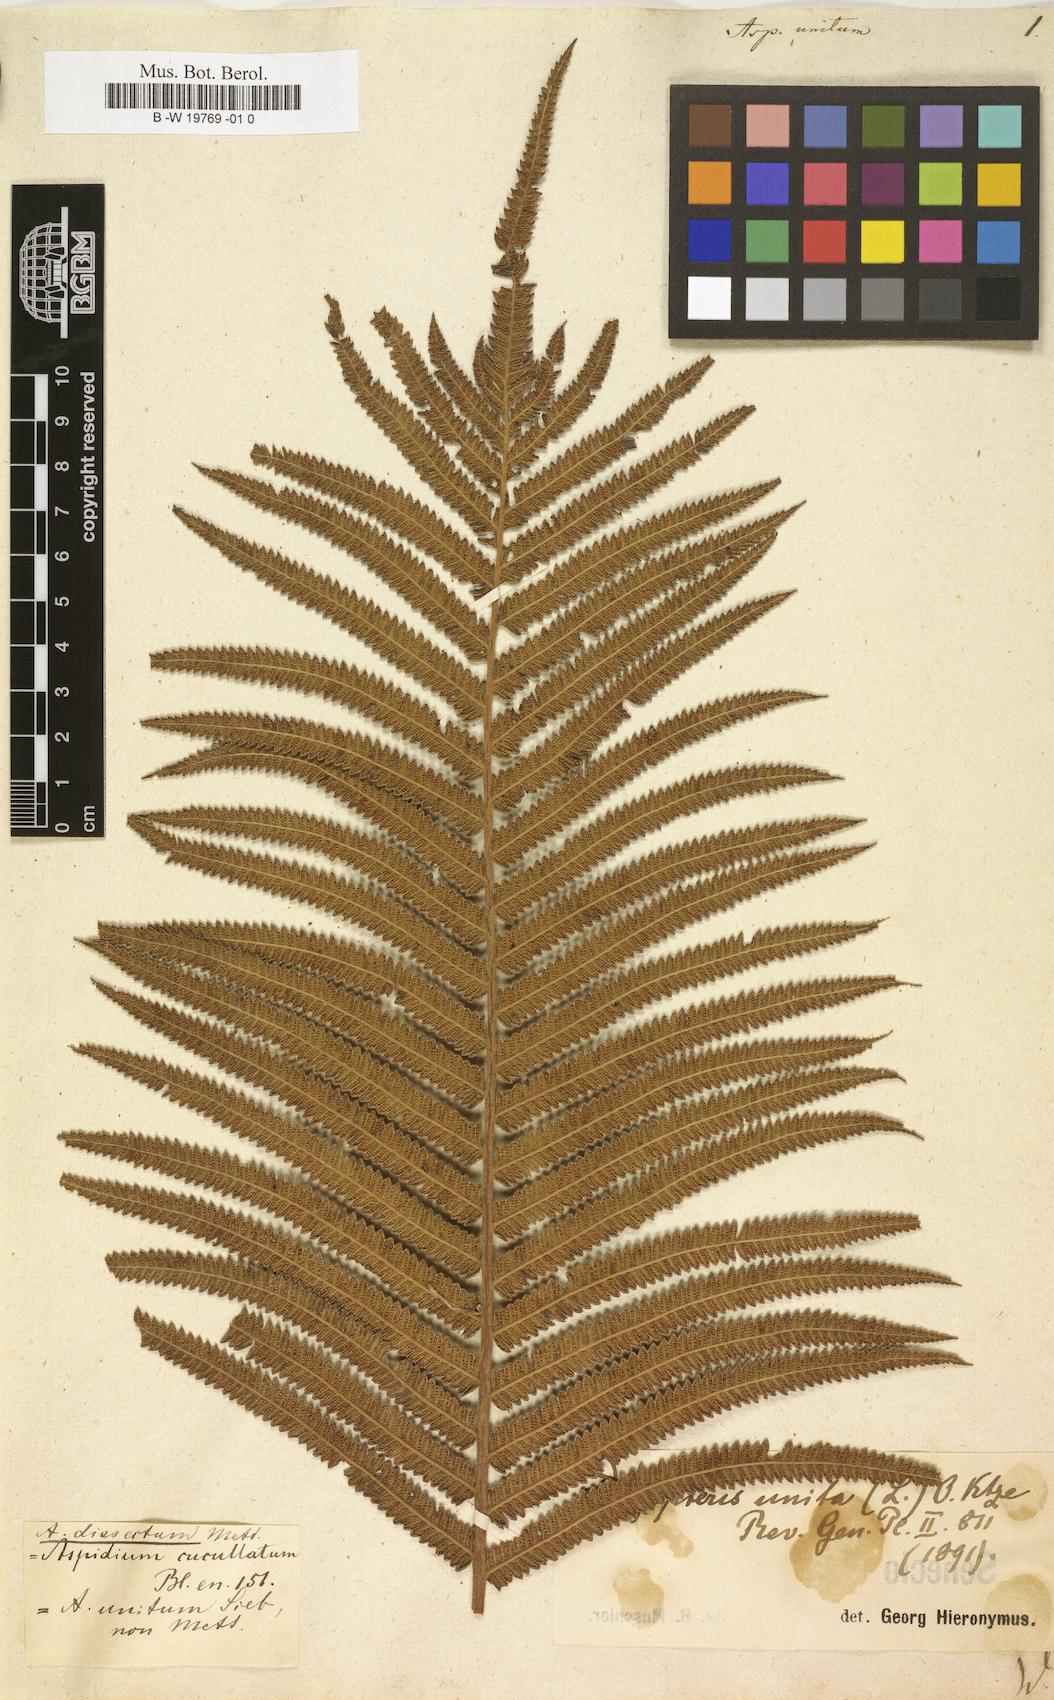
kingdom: Plantae
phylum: Tracheophyta
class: Polypodiopsida
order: Polypodiales
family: Thelypteridaceae
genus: Cyclosorus
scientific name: Cyclosorus interruptus
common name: Neke fern
